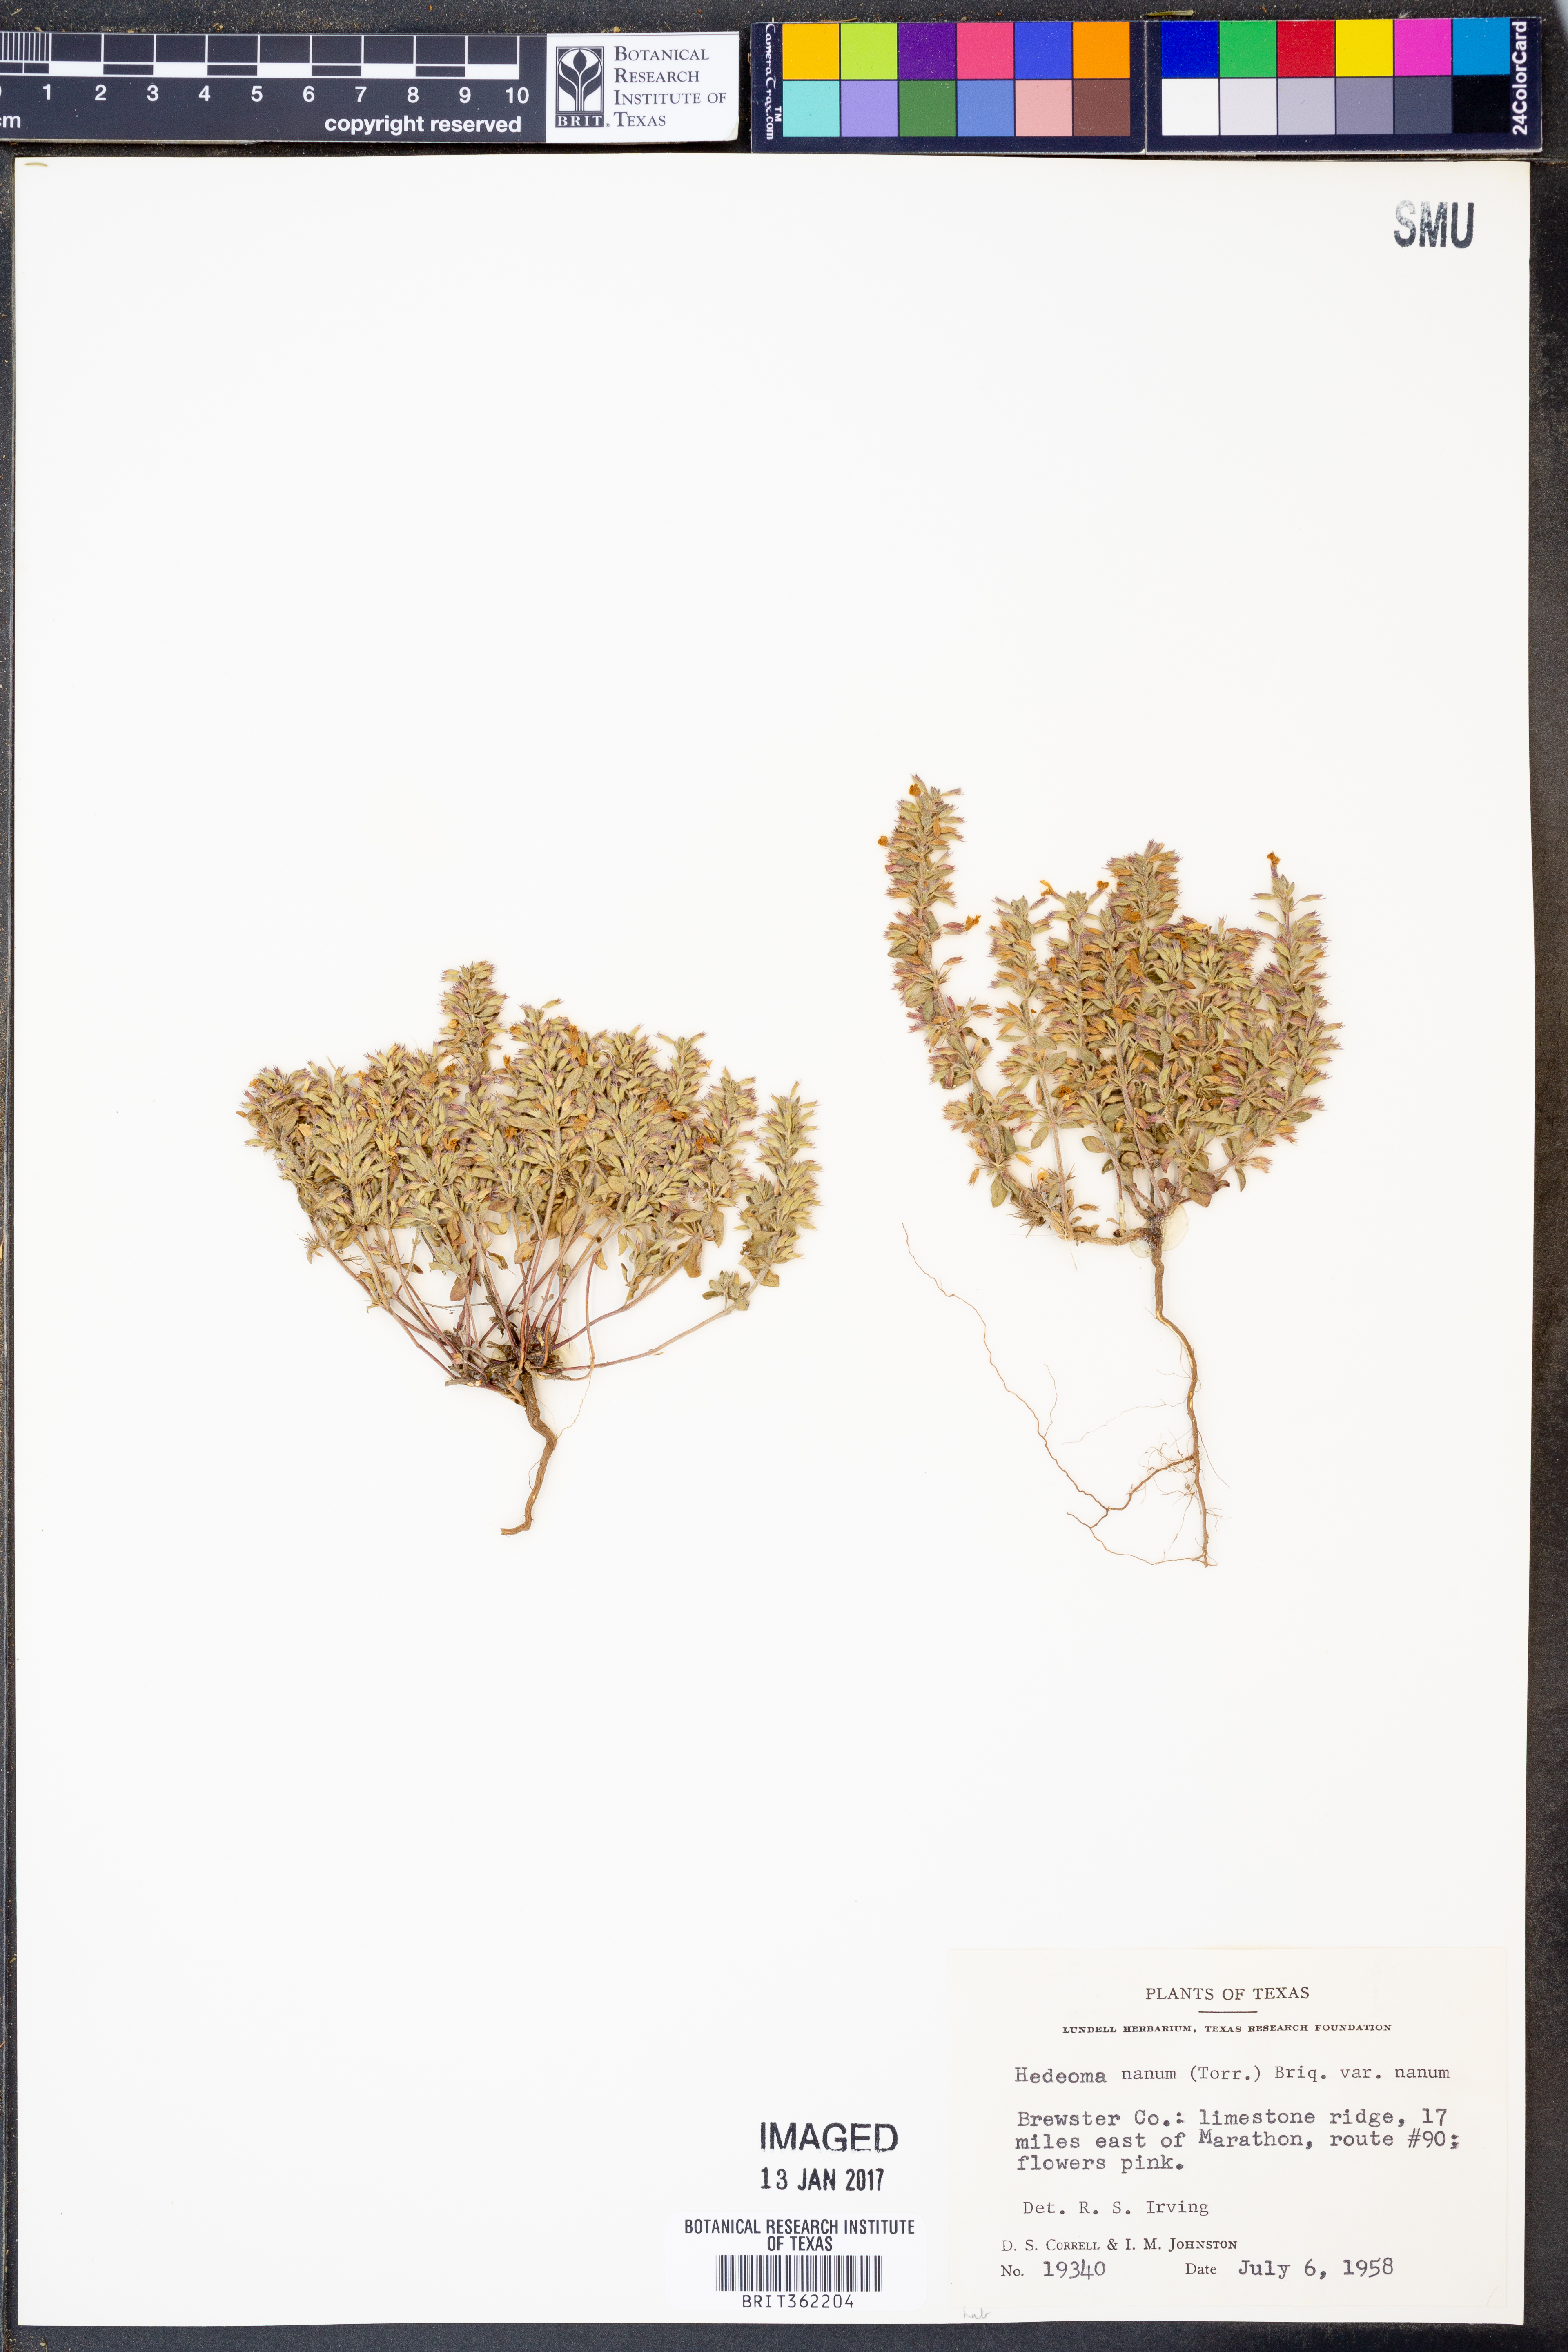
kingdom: Plantae
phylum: Tracheophyta
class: Magnoliopsida
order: Lamiales
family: Lamiaceae
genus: Hedeoma
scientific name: Hedeoma nana
